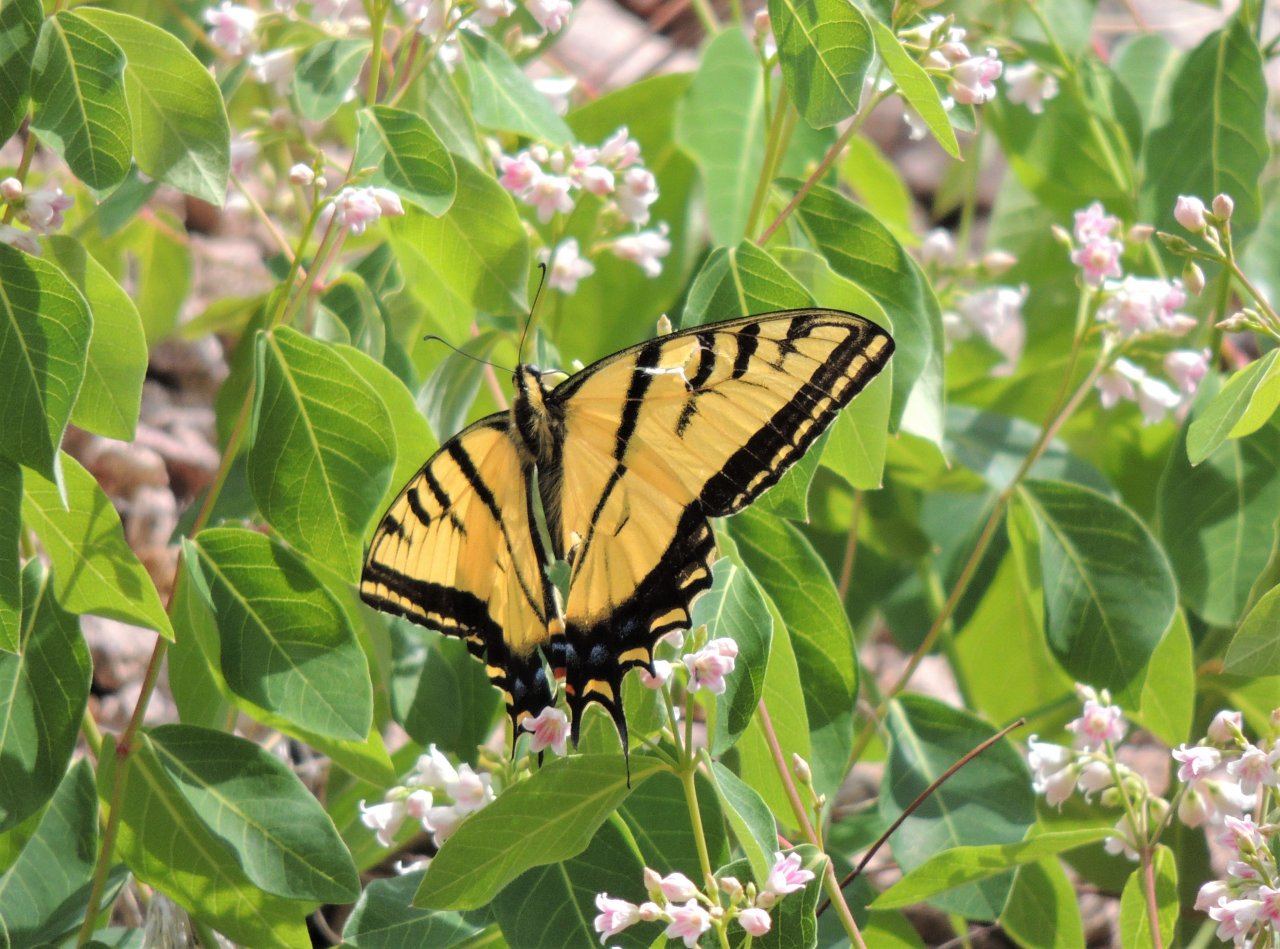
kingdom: Animalia
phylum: Arthropoda
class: Insecta
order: Lepidoptera
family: Papilionidae
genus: Papilio
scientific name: Papilio multicaudata
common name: Two-tailed Swallowtail
